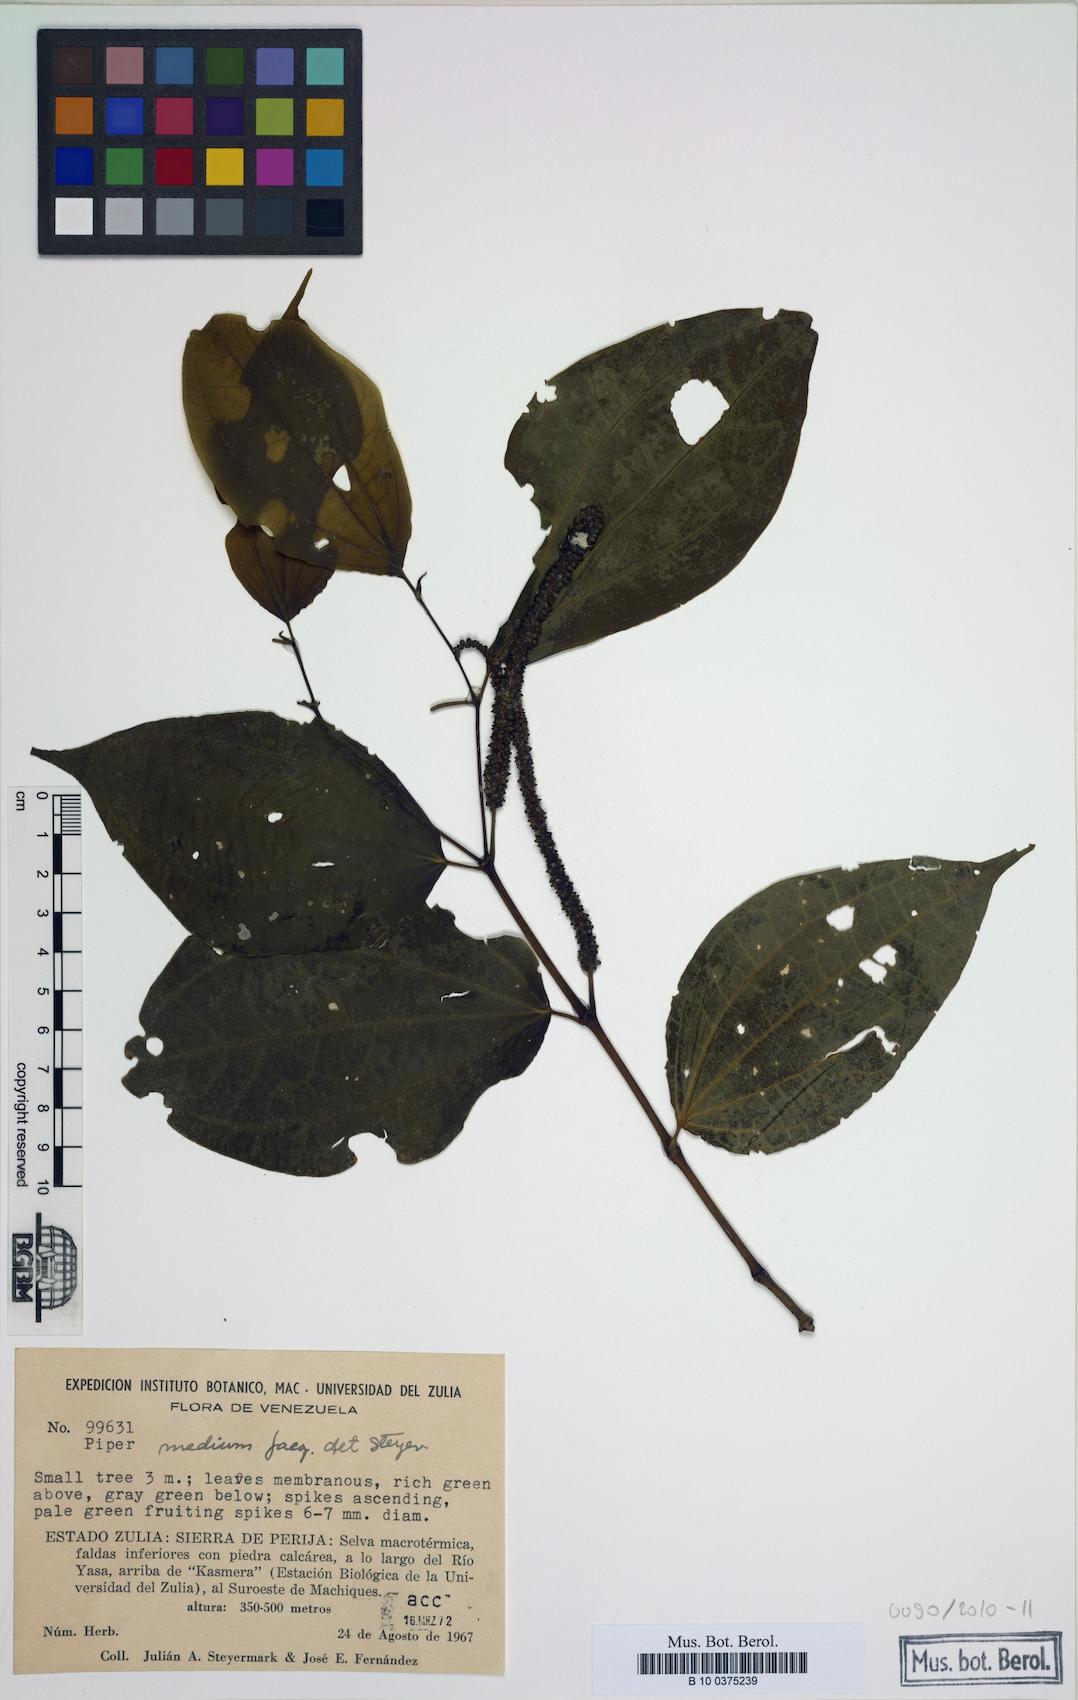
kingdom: Plantae
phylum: Tracheophyta
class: Magnoliopsida
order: Piperales
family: Piperaceae
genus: Piper
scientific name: Piper amalago
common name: Pepper-elder
